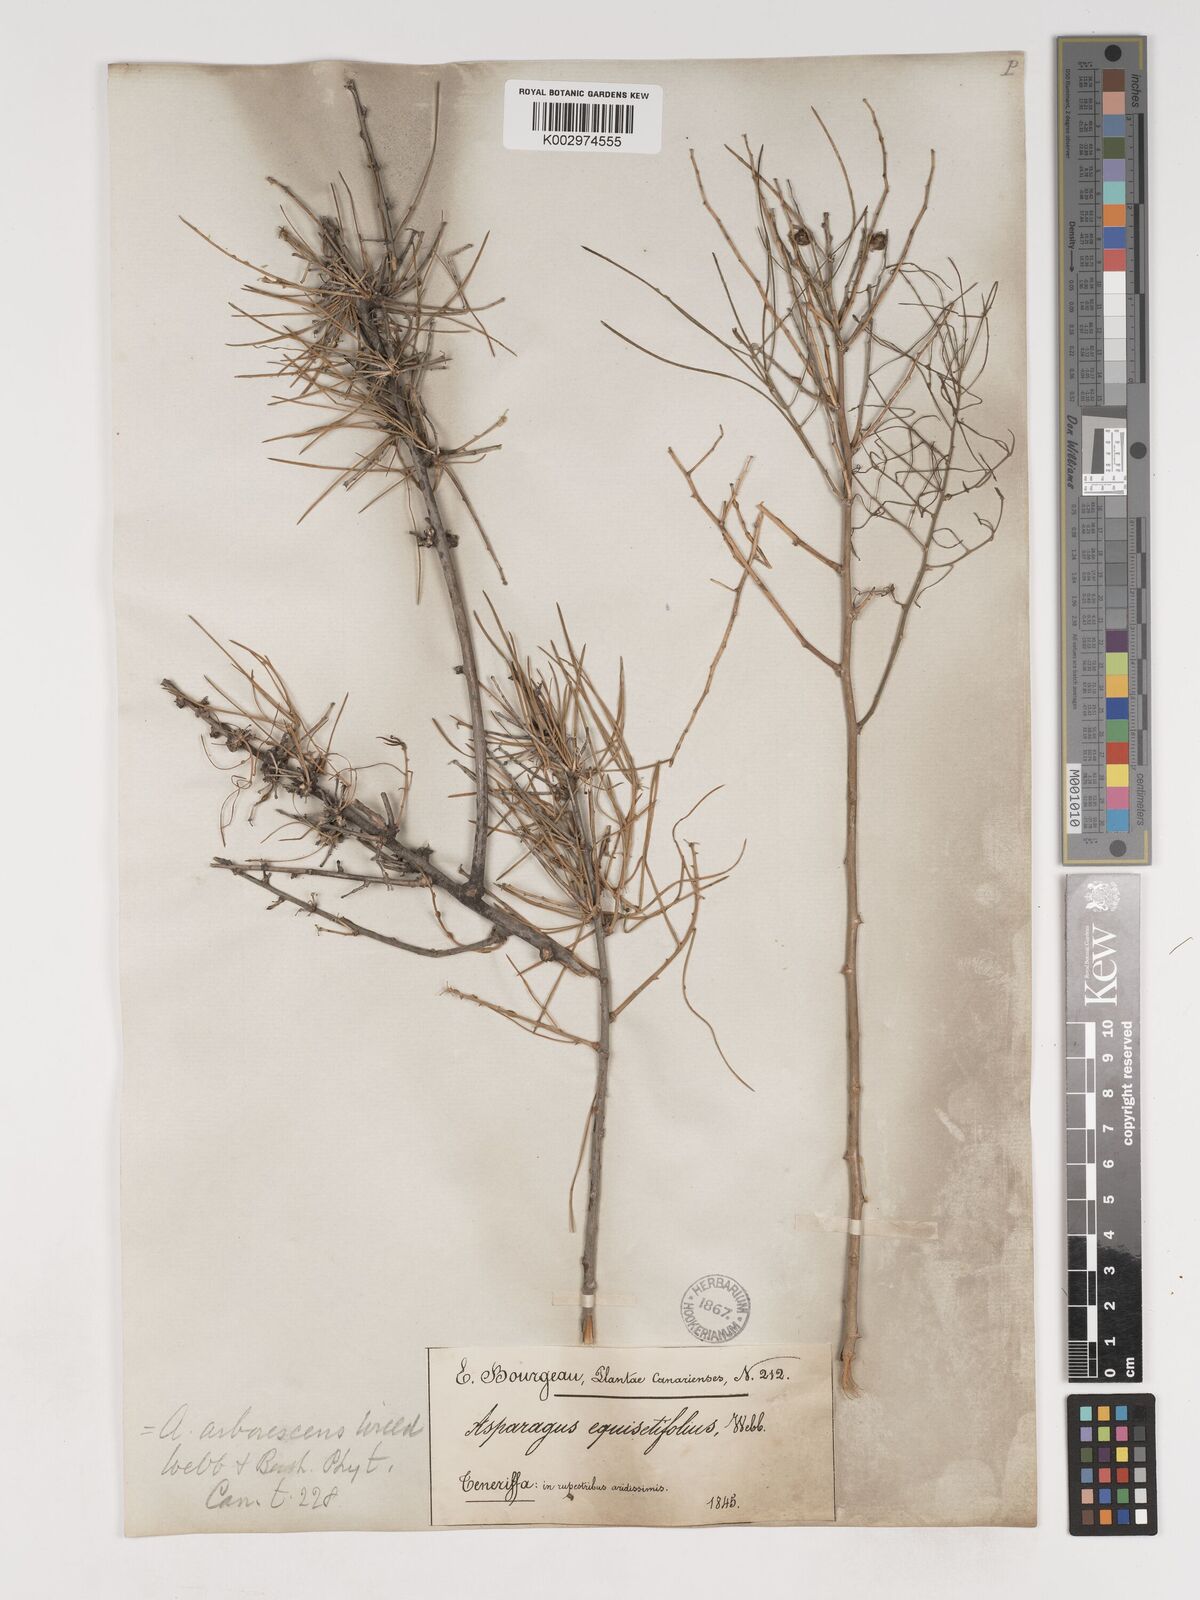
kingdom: Plantae
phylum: Tracheophyta
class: Liliopsida
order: Asparagales
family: Asparagaceae
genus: Asparagus
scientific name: Asparagus arborescens
